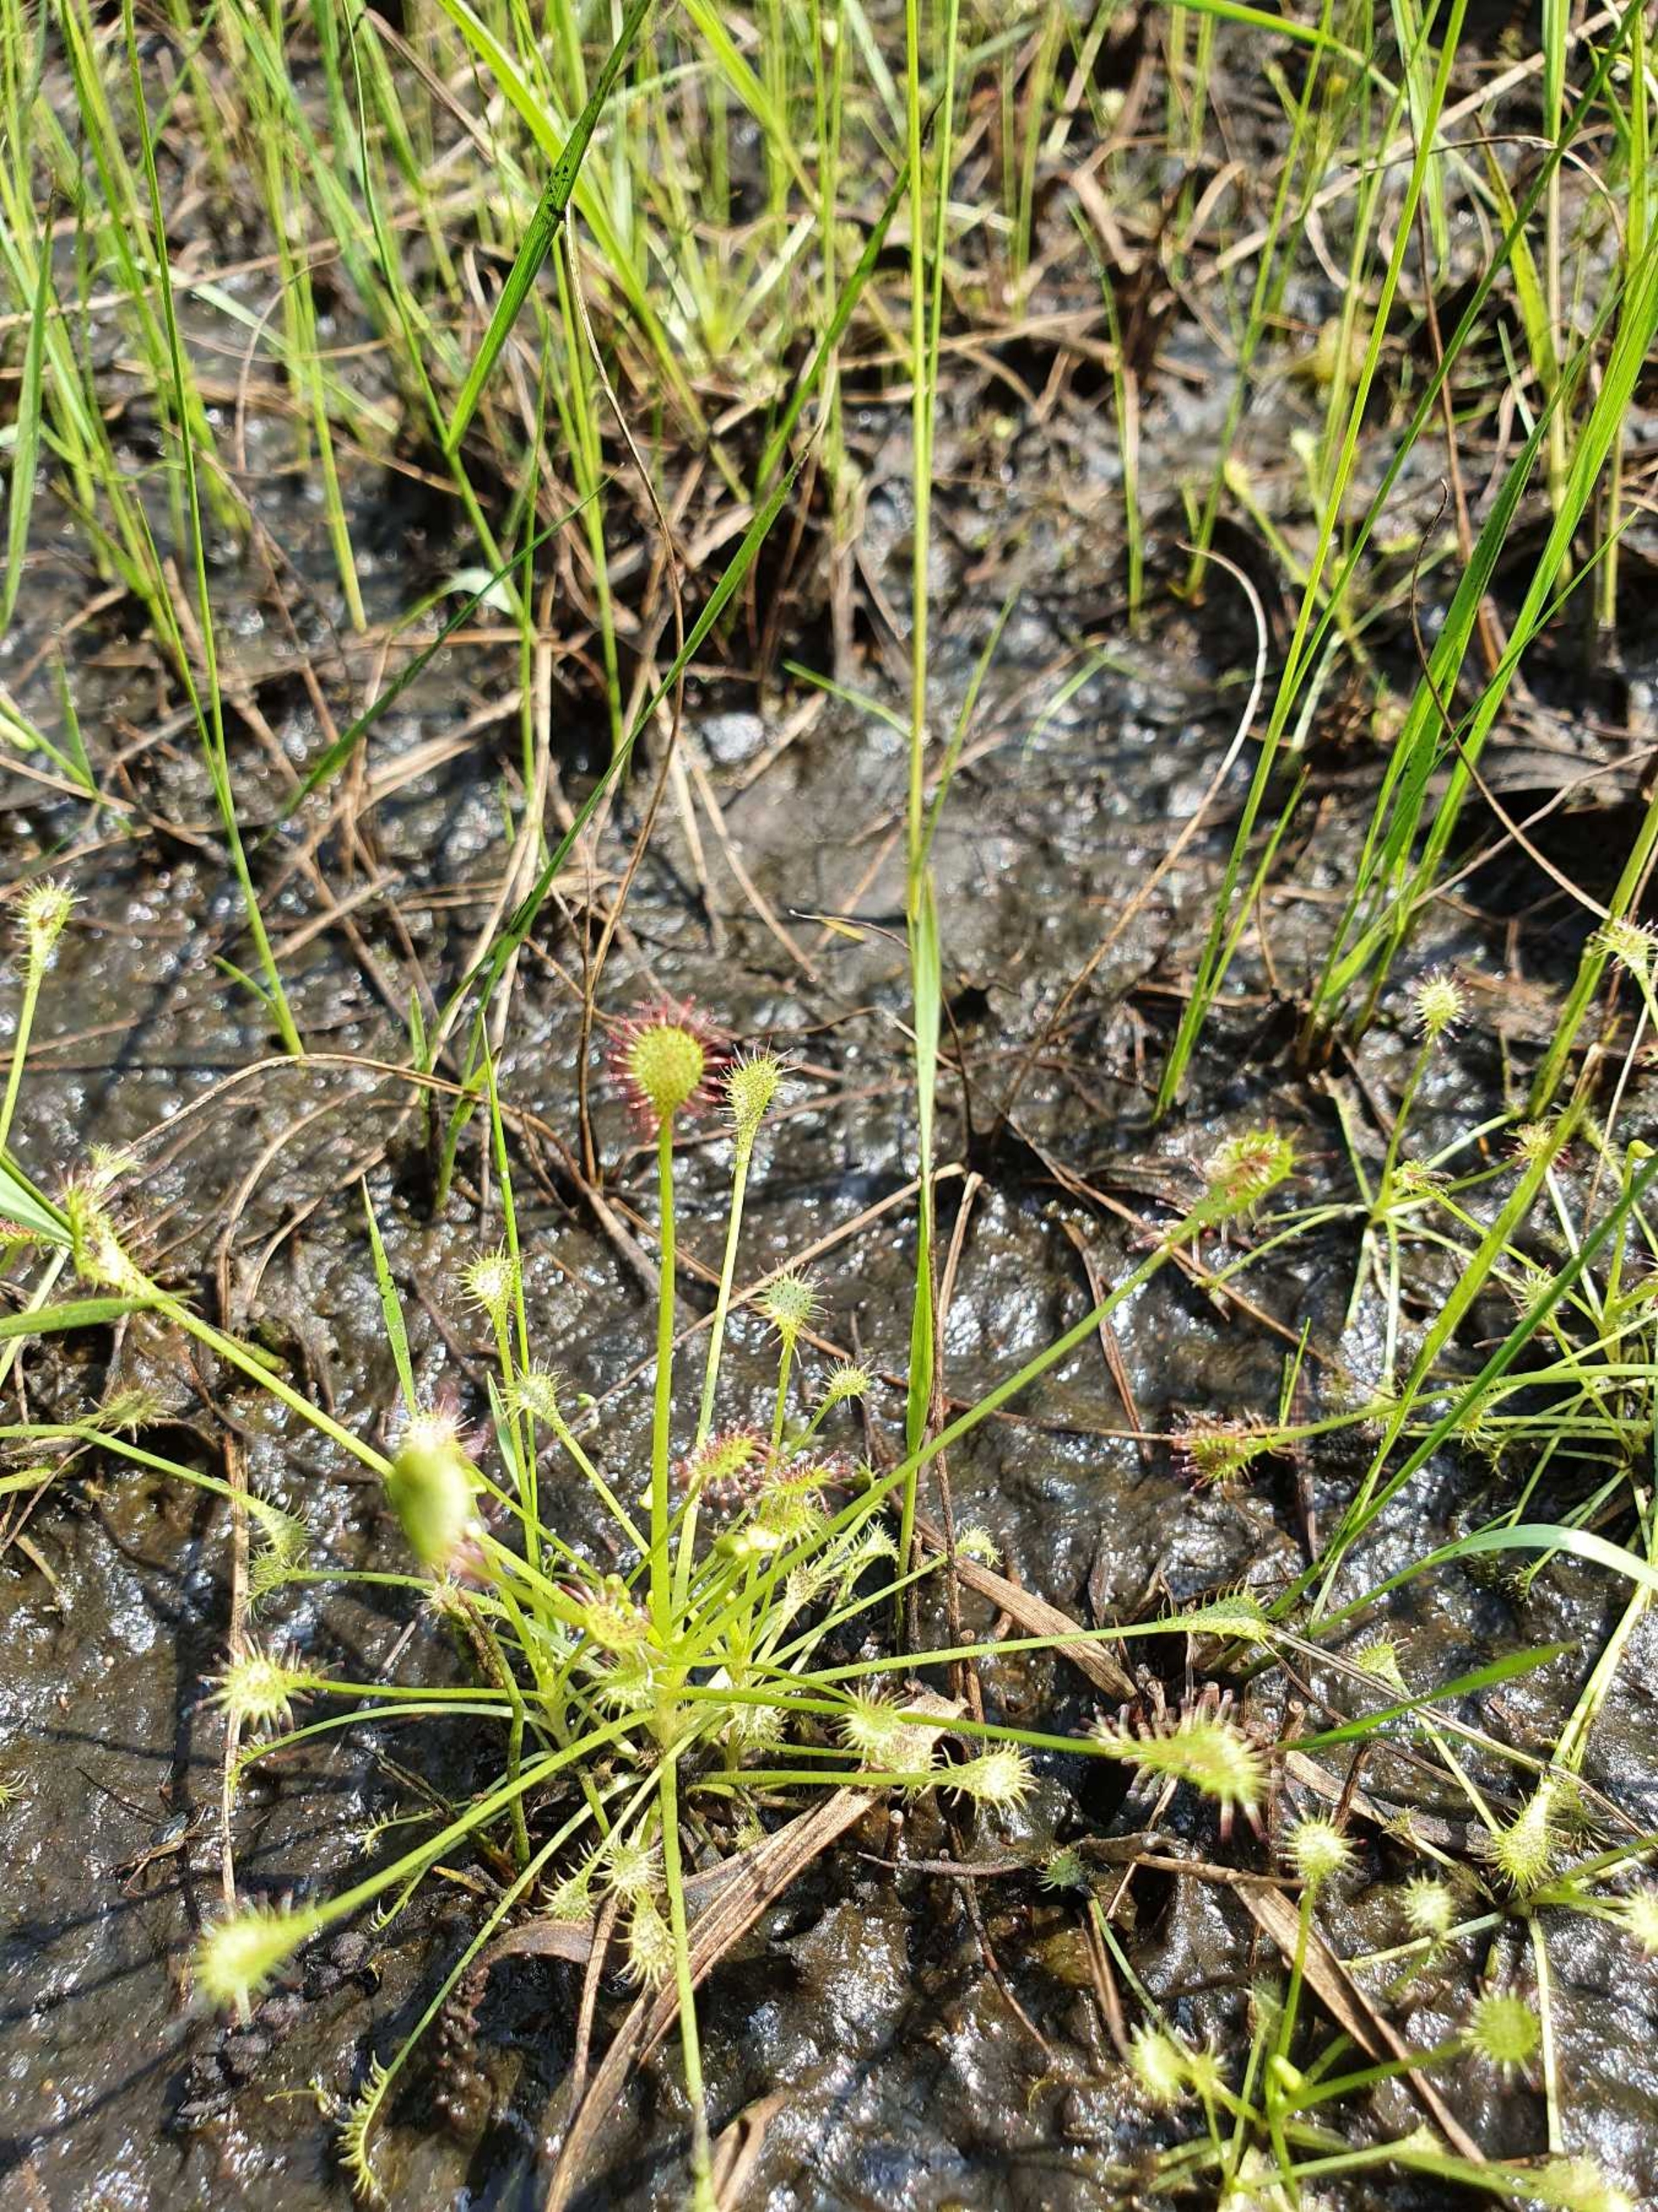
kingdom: Plantae
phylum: Tracheophyta
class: Magnoliopsida
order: Caryophyllales
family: Droseraceae
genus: Drosera
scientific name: Drosera intermedia
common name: Liden soldug
